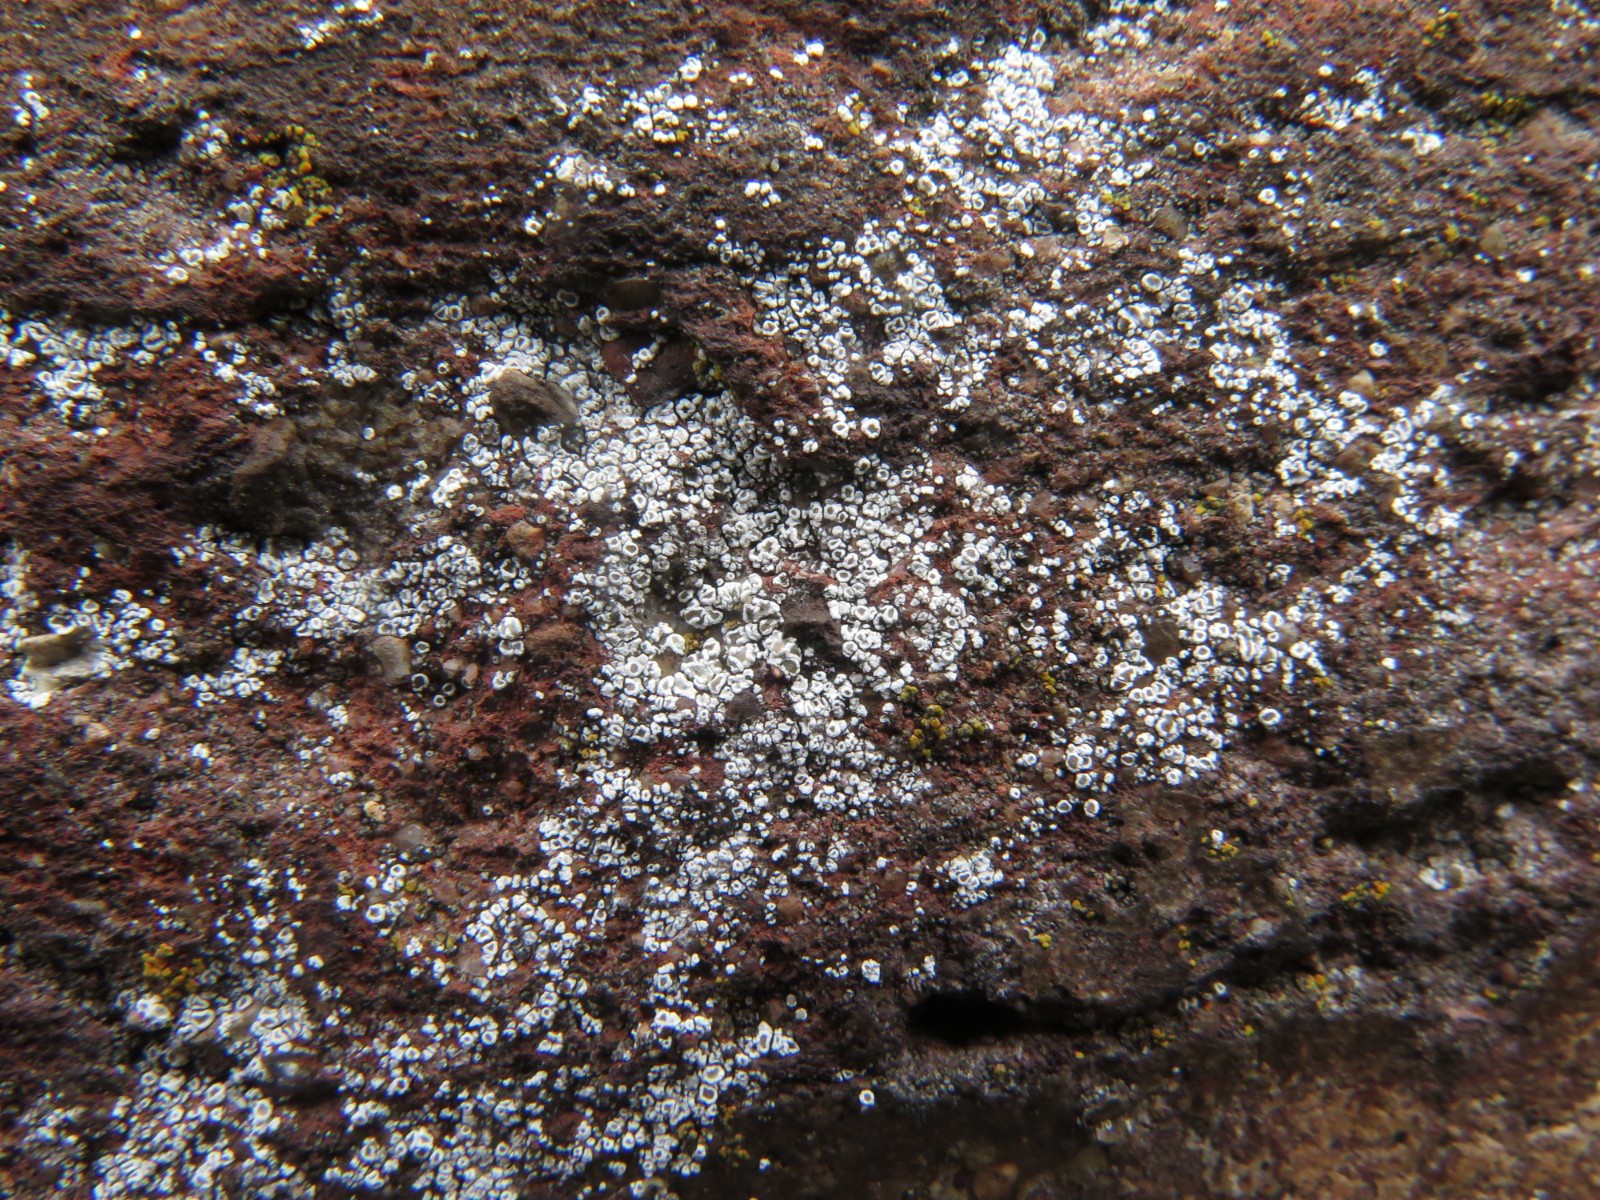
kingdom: Fungi
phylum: Ascomycota
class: Lecanoromycetes
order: Lecanorales
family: Lecanoraceae
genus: Polyozosia
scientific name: Polyozosia dispersa
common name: spredt kantskivelav
